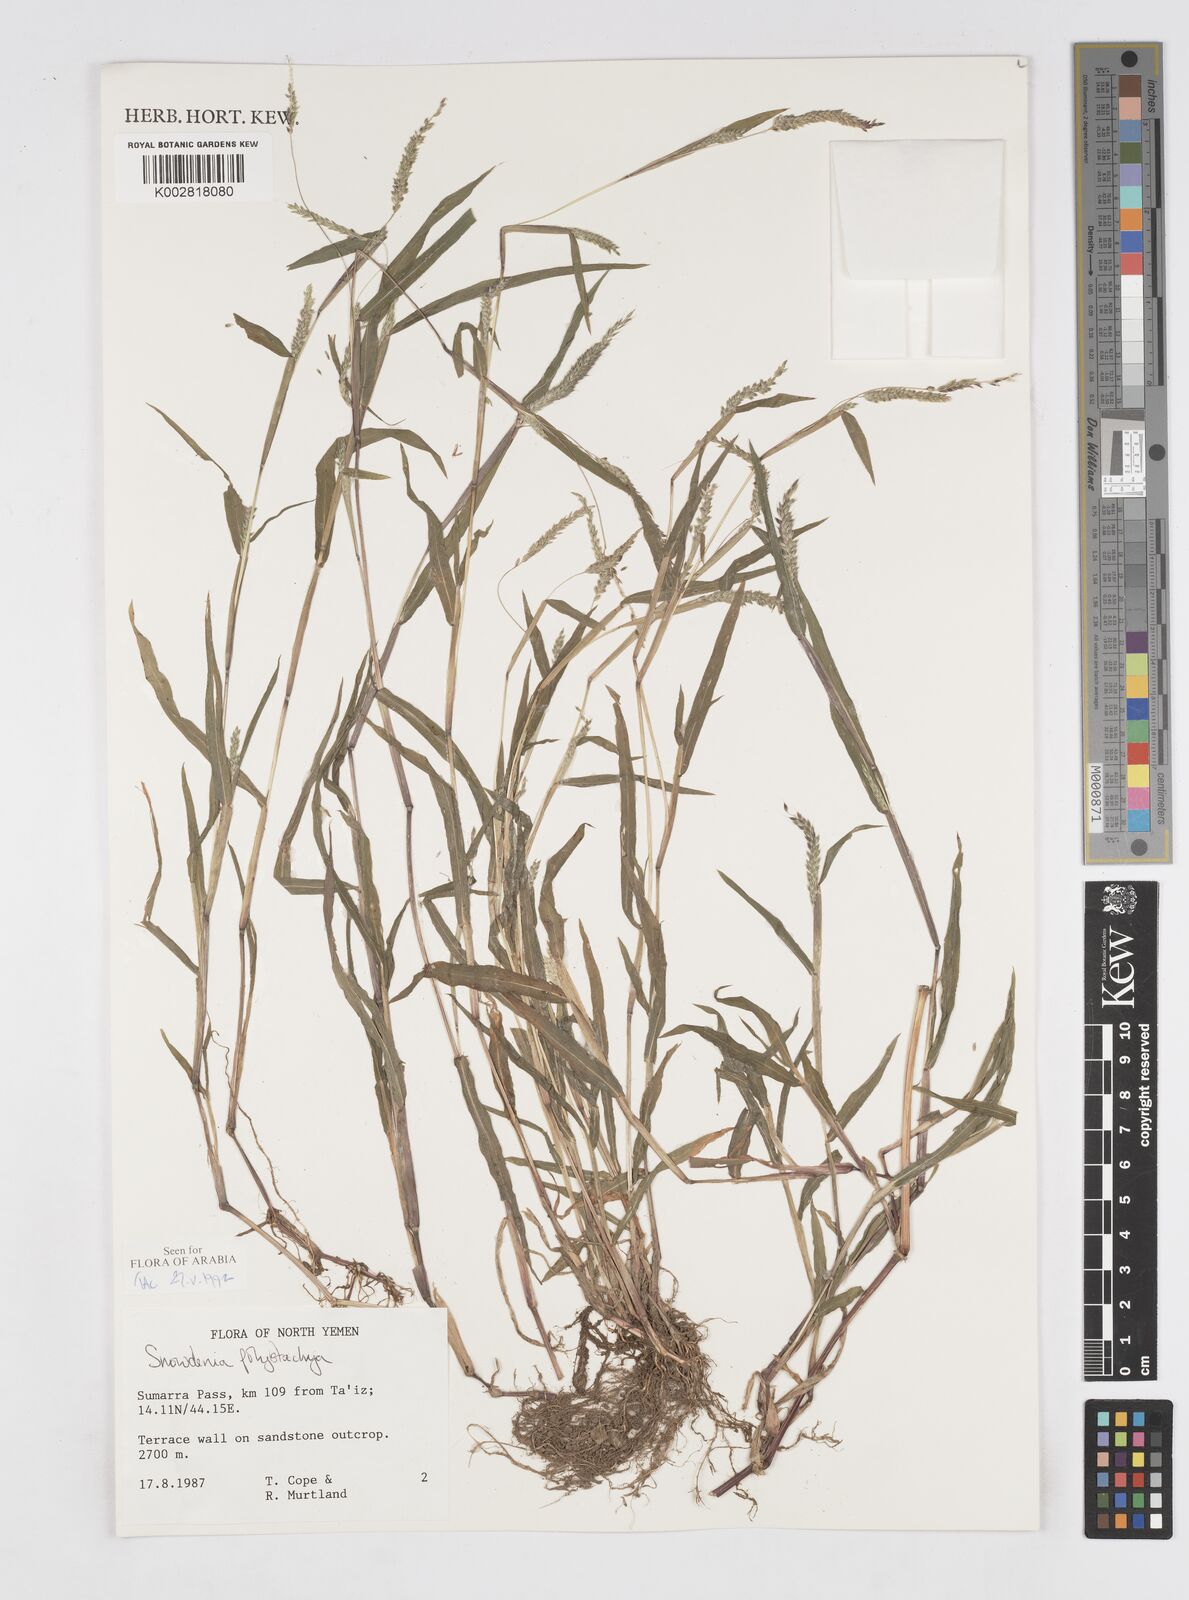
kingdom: Plantae
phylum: Tracheophyta
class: Liliopsida
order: Poales
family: Poaceae
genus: Snowdenia
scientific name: Snowdenia polystachya
